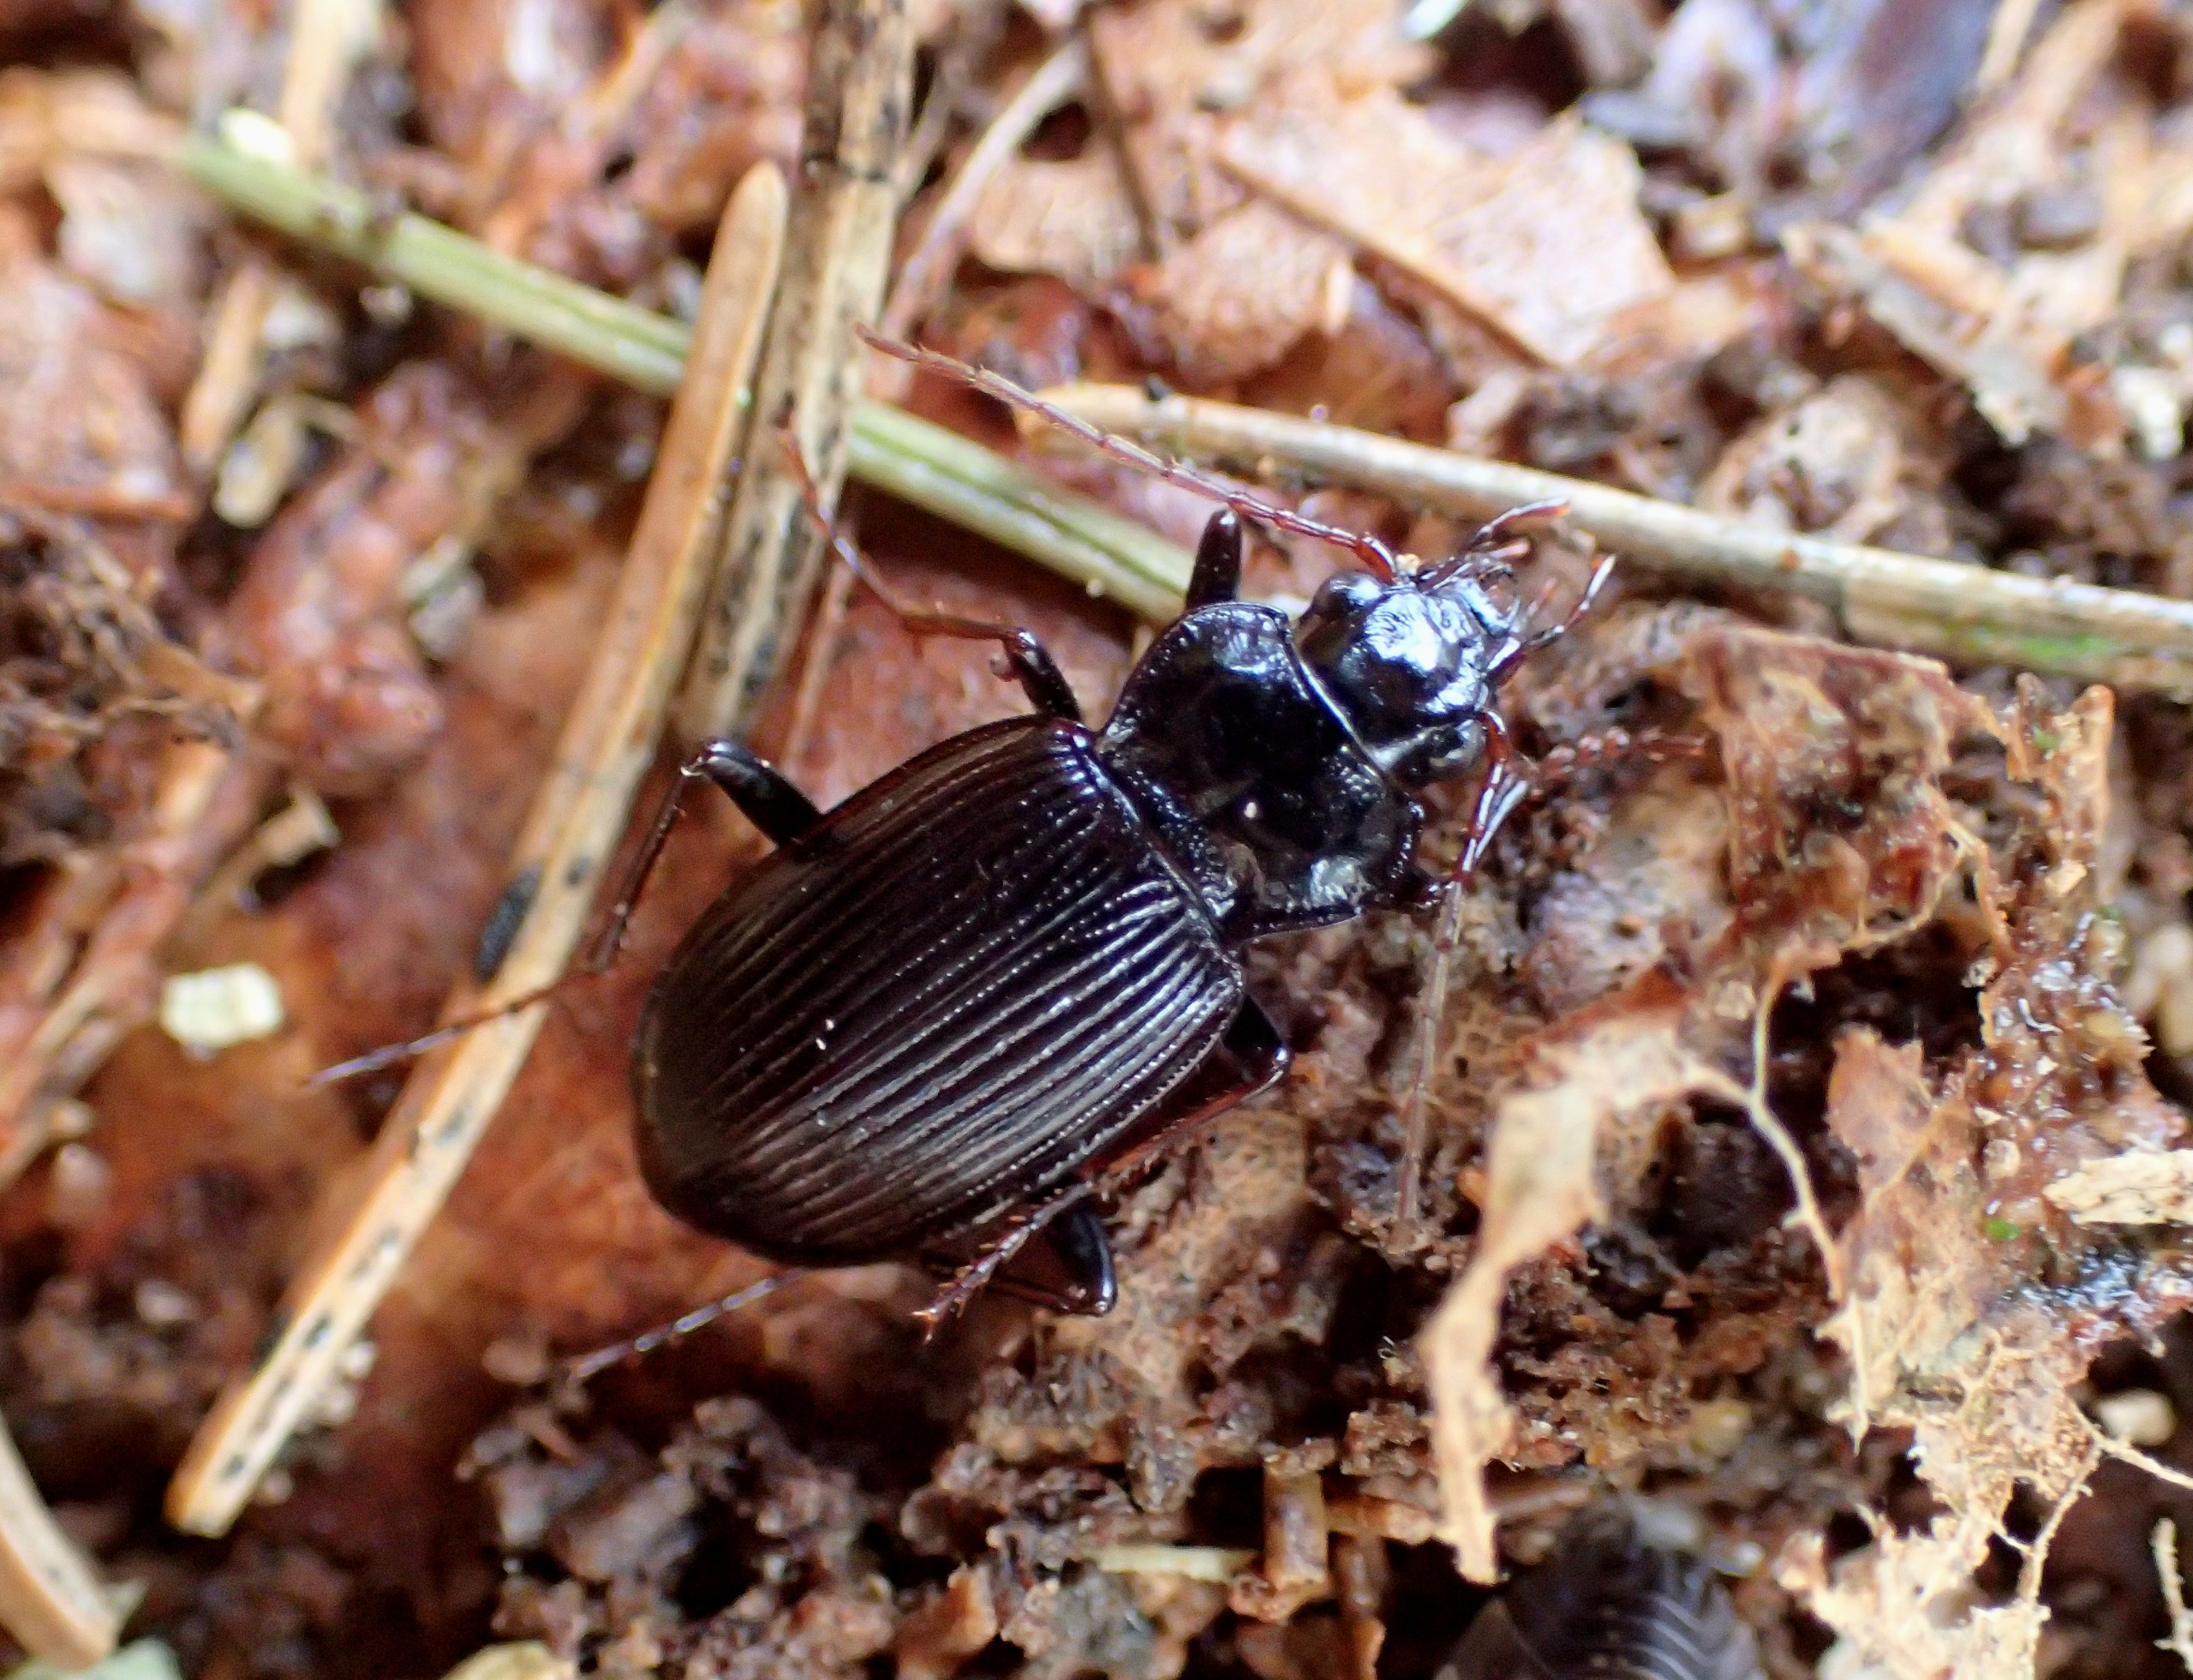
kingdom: Animalia
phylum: Arthropoda
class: Insecta
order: Coleoptera
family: Carabidae
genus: Nebria
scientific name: Nebria brevicollis
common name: Skovfladløber
